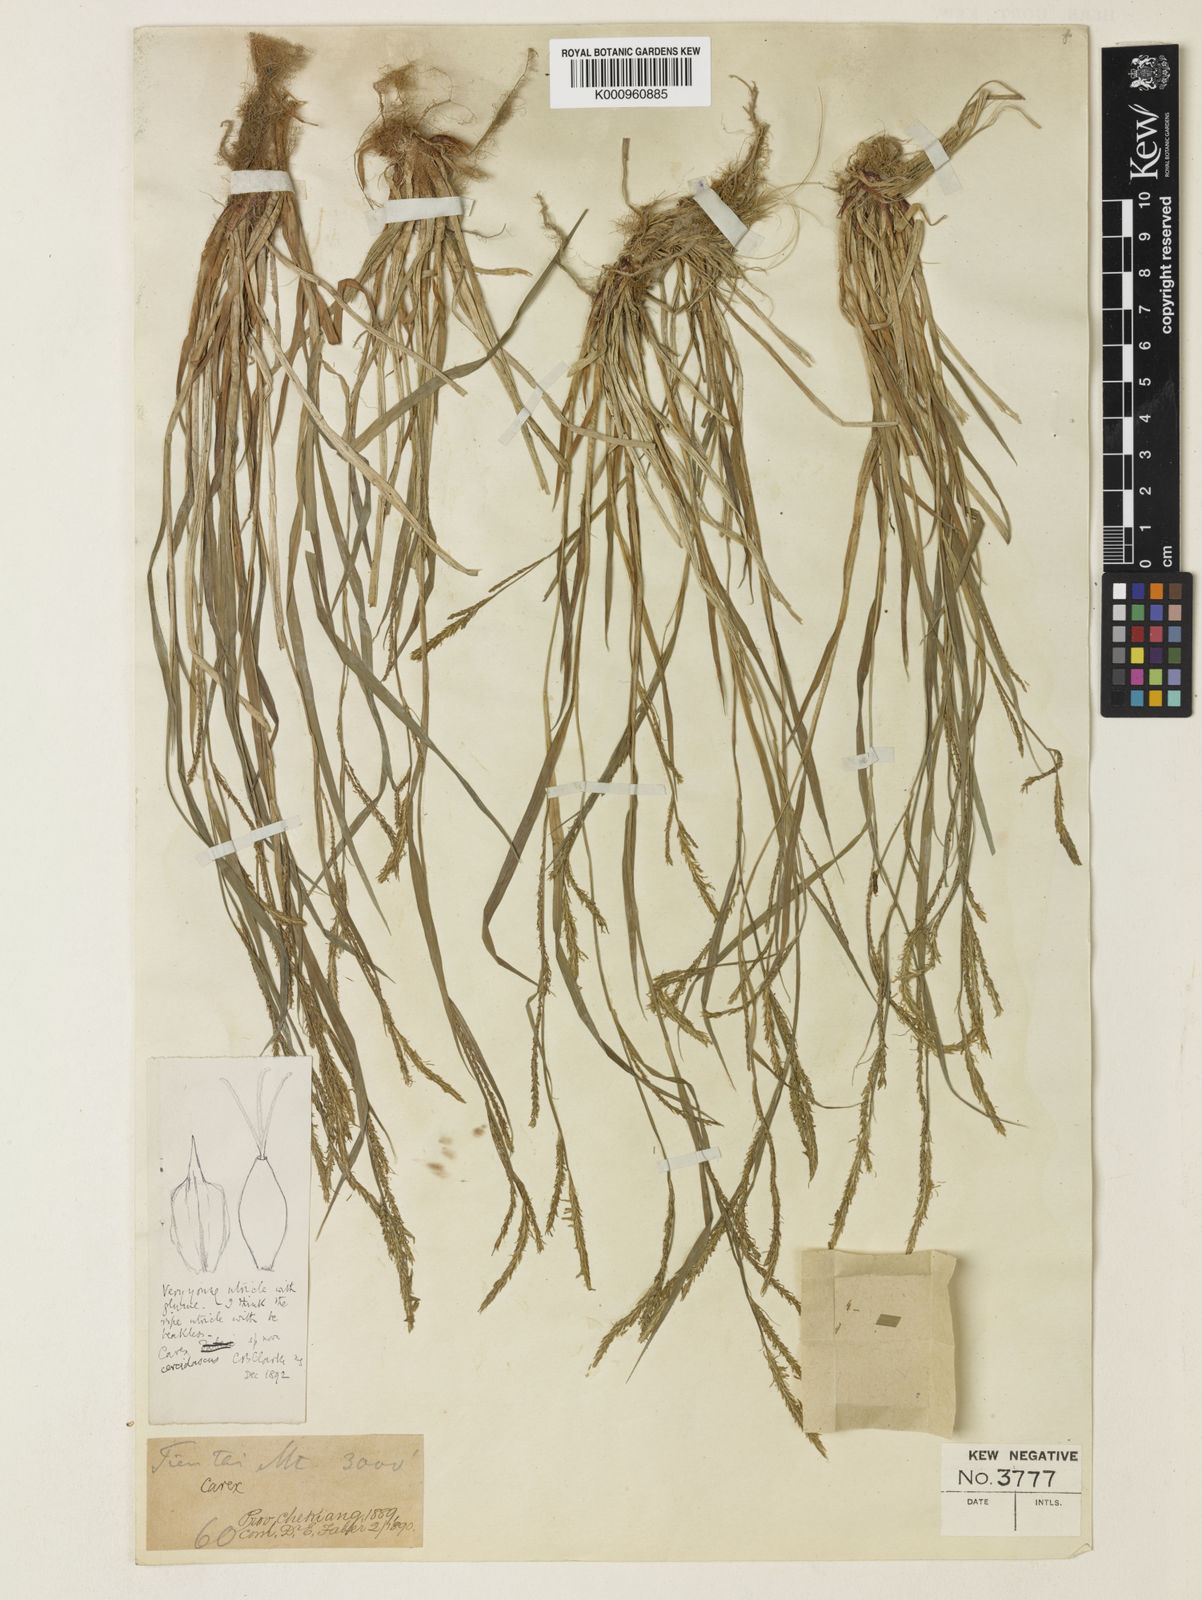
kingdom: Plantae
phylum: Tracheophyta
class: Liliopsida
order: Poales
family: Cyperaceae
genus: Carex
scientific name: Carex cercidascus
